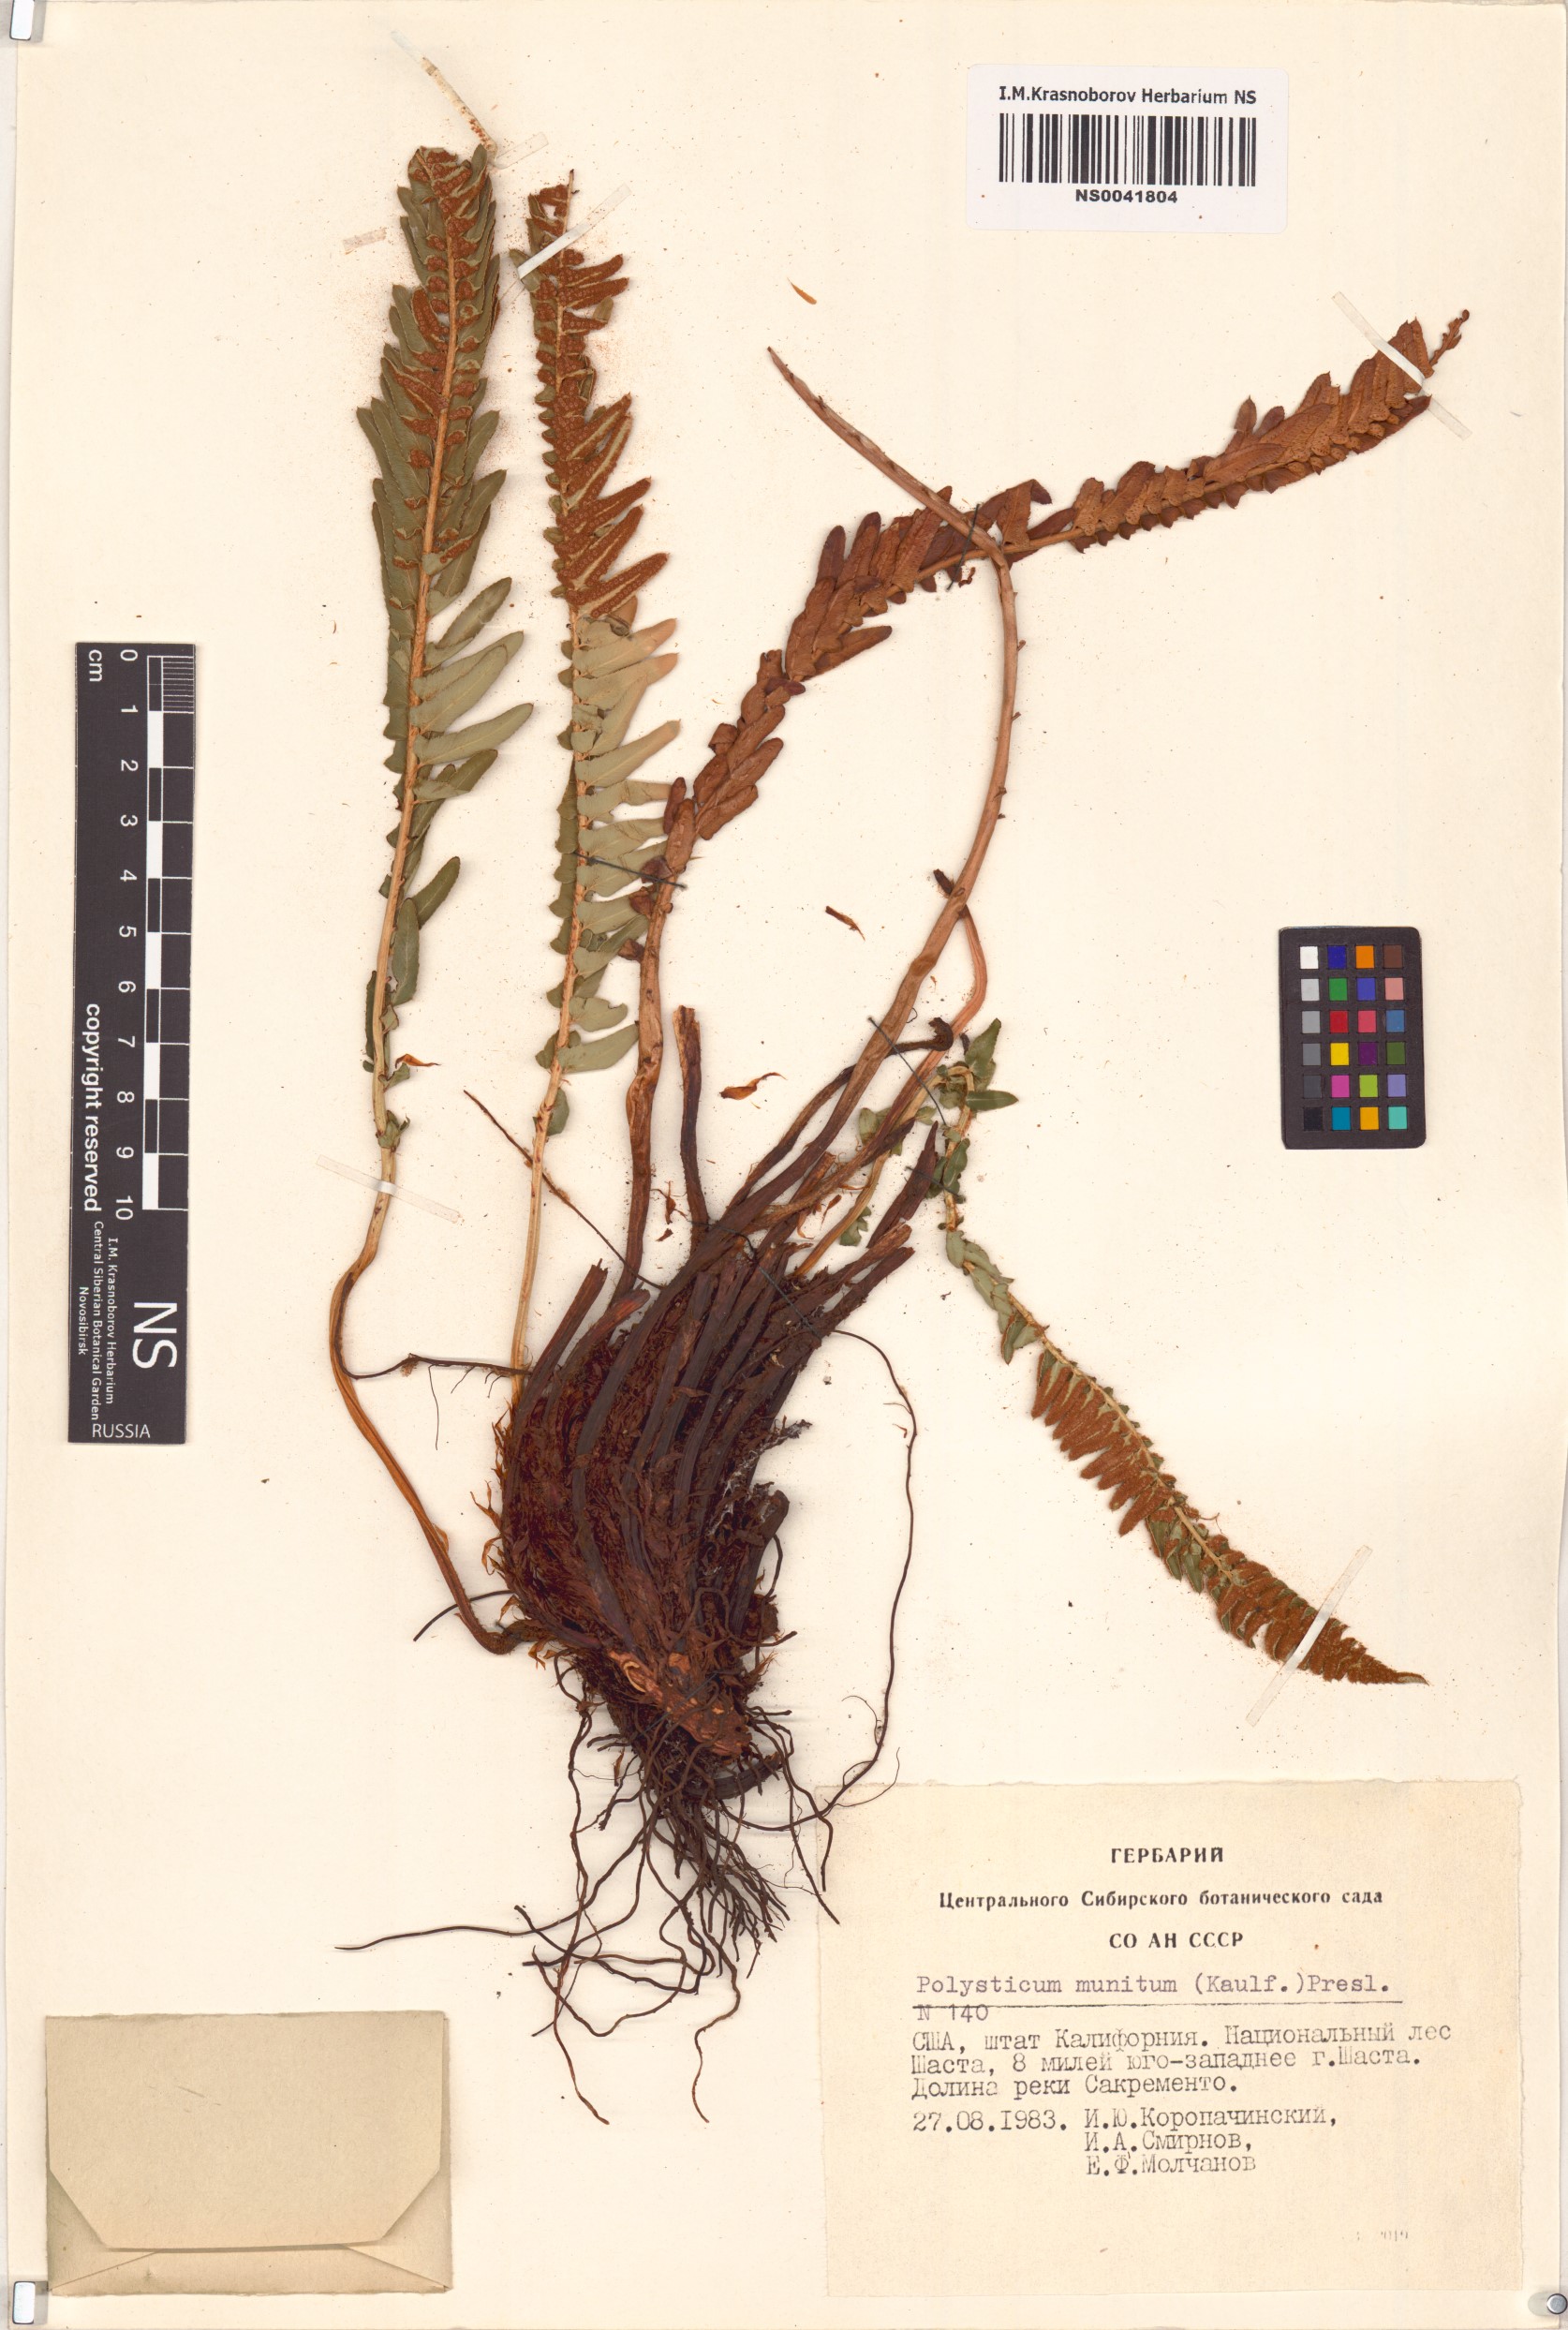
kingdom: Plantae
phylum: Tracheophyta
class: Polypodiopsida
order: Polypodiales
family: Dryopteridaceae
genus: Polystichum
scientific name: Polystichum munitum
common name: Western sword-fern
